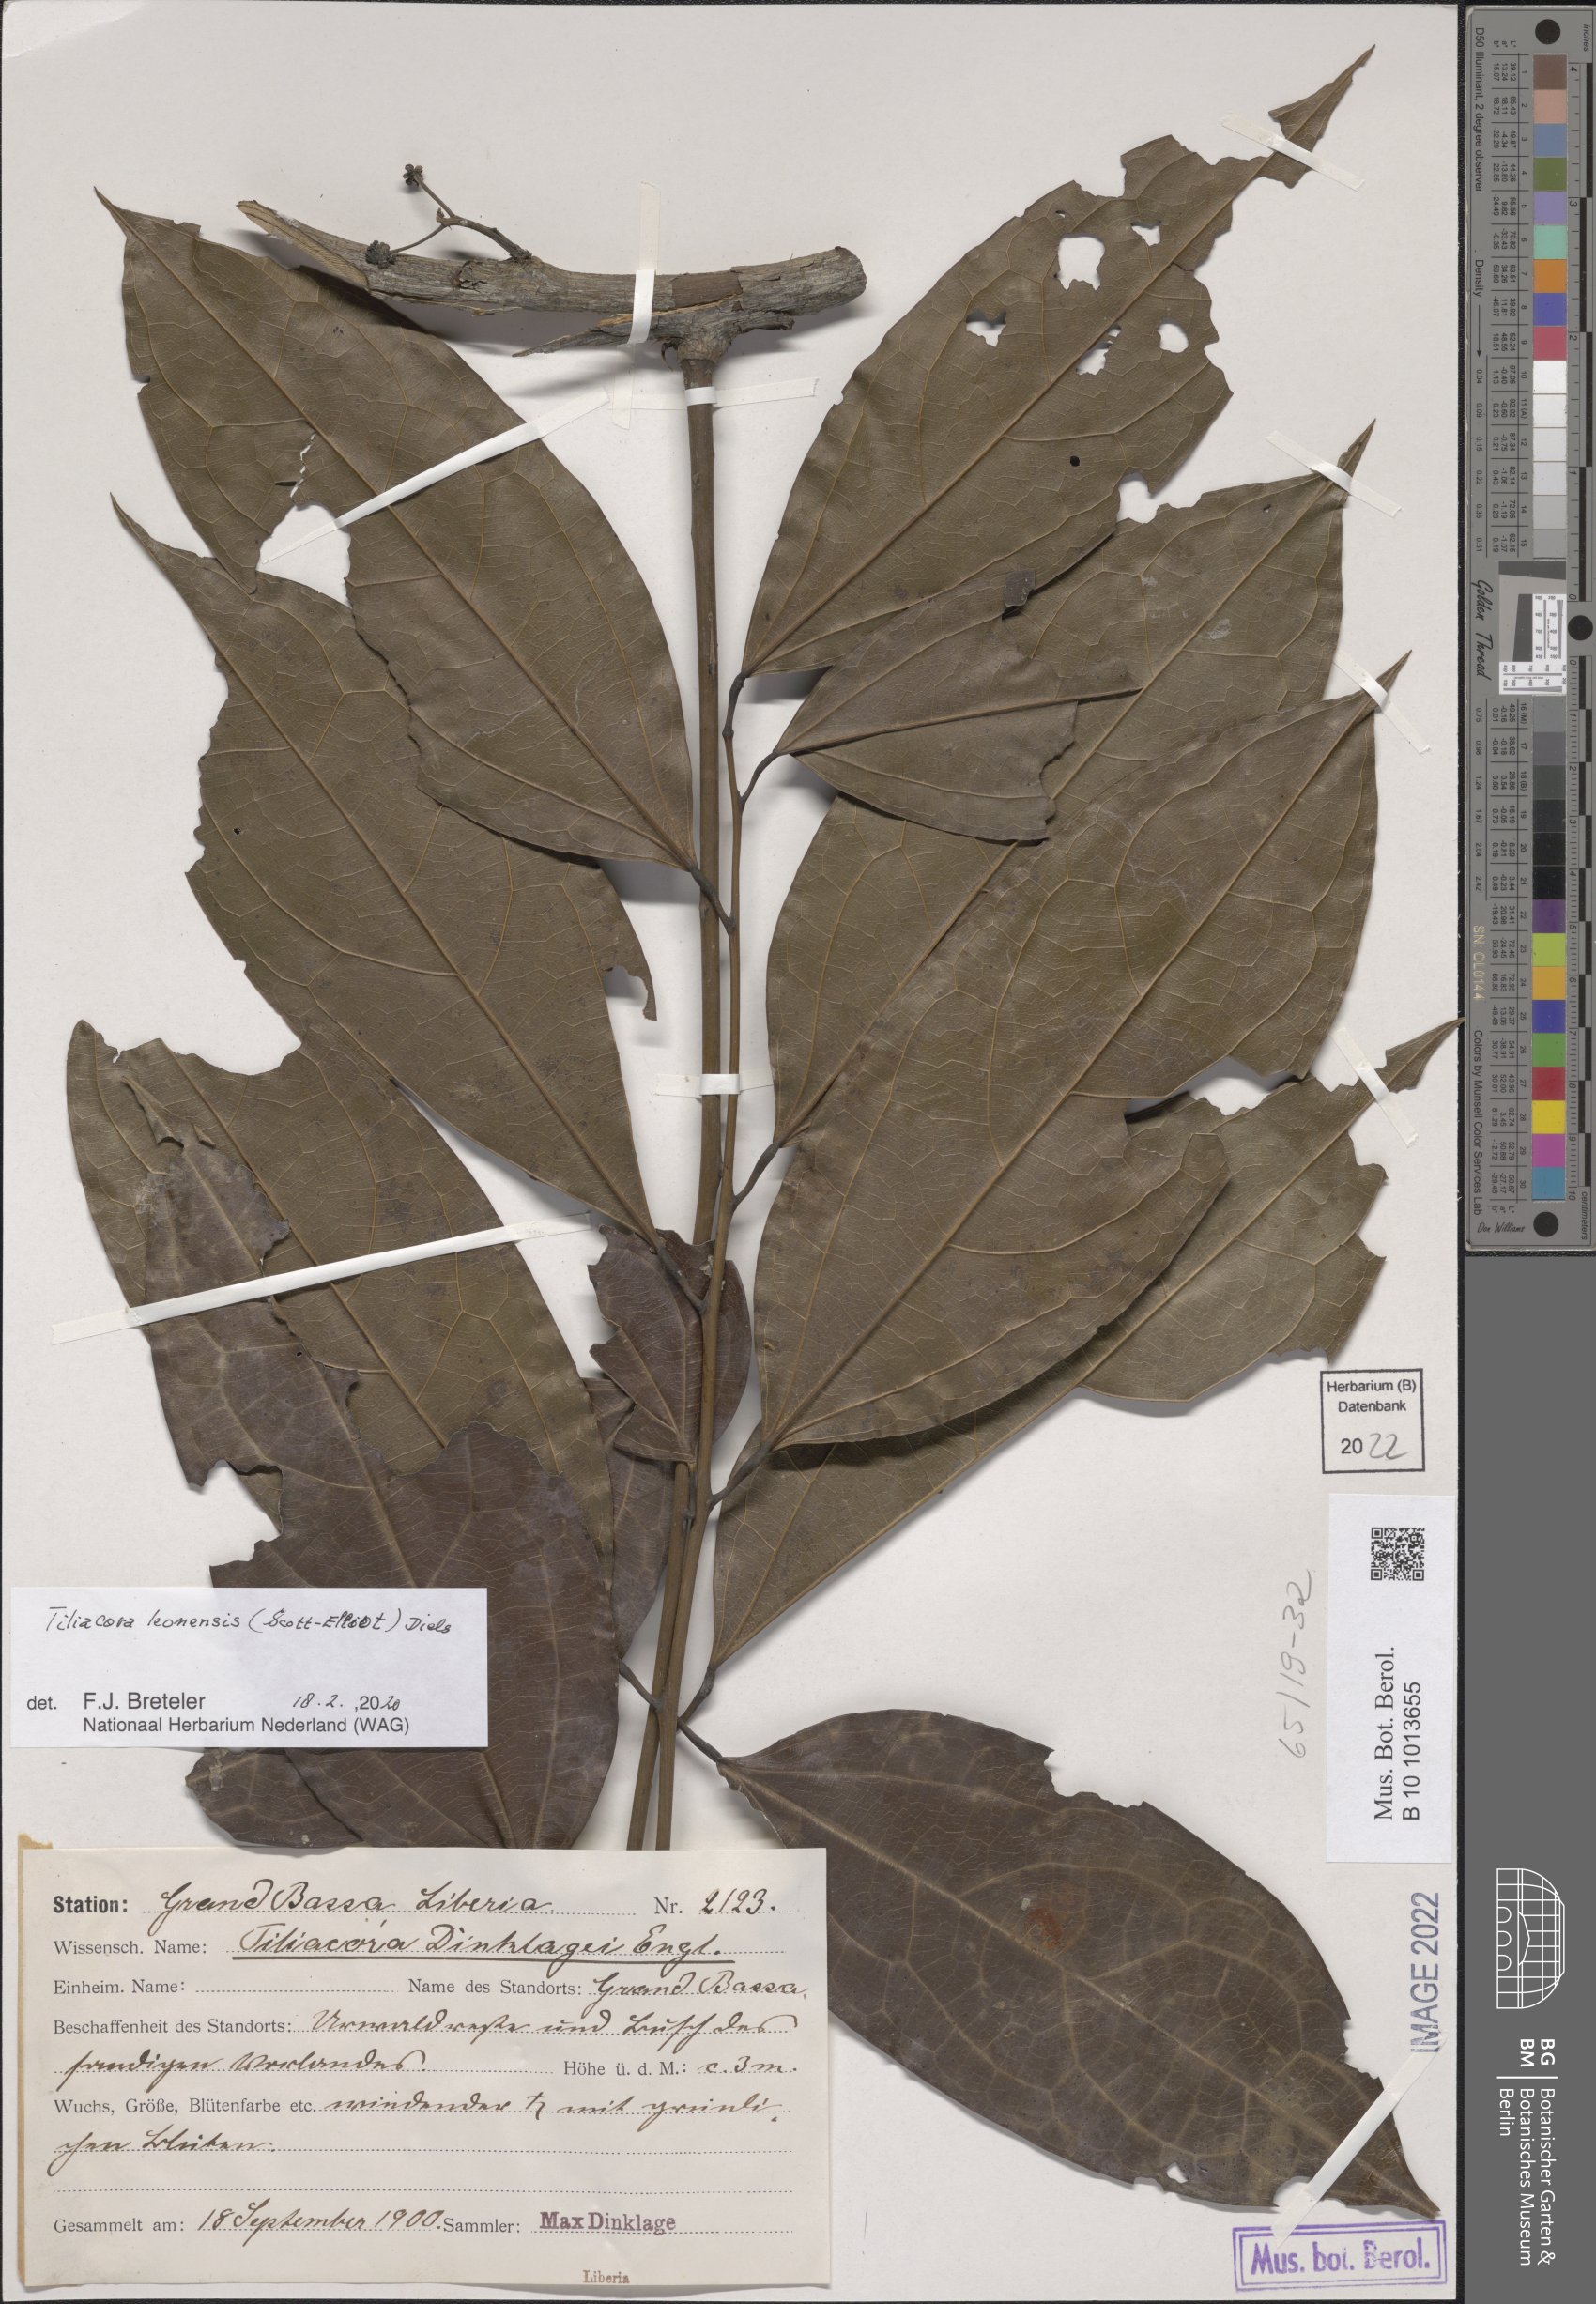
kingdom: Plantae
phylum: Tracheophyta
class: Magnoliopsida
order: Ranunculales
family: Menispermaceae
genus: Tiliacora
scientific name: Tiliacora leonensis
